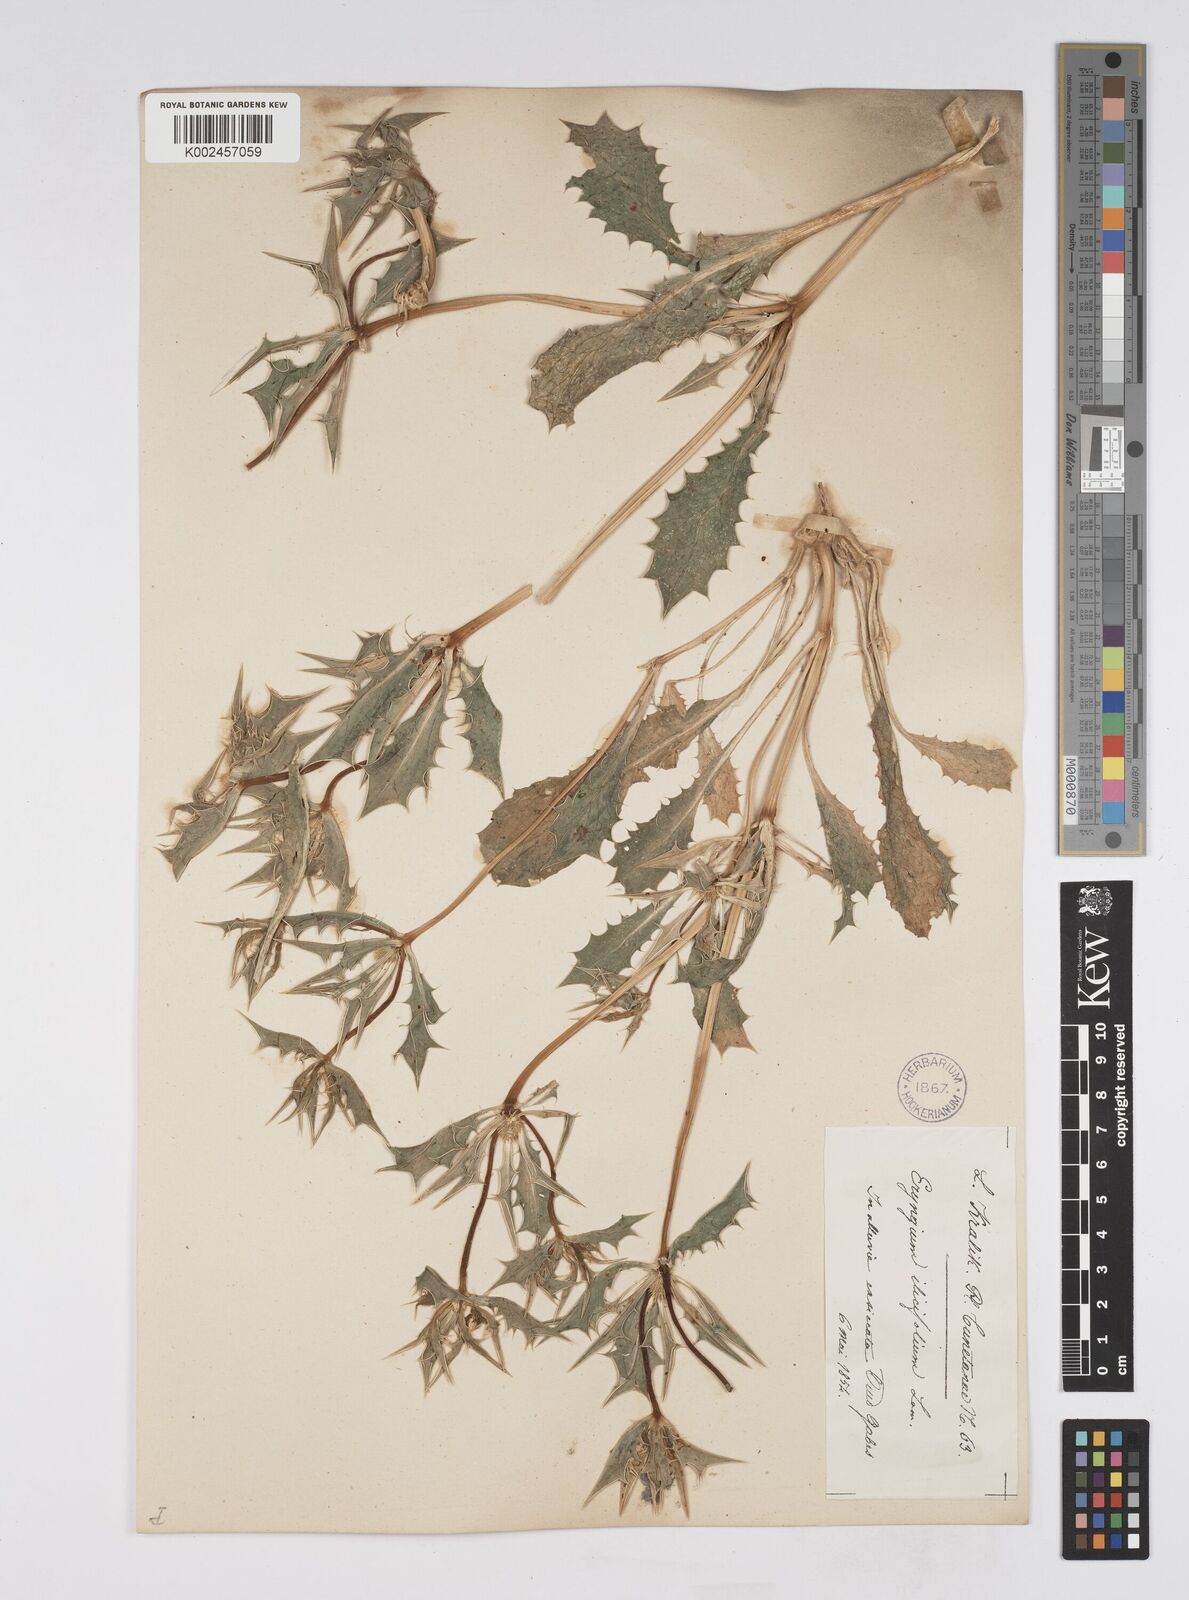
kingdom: Plantae
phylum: Tracheophyta
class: Magnoliopsida
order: Apiales
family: Apiaceae
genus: Eryngium
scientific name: Eryngium
